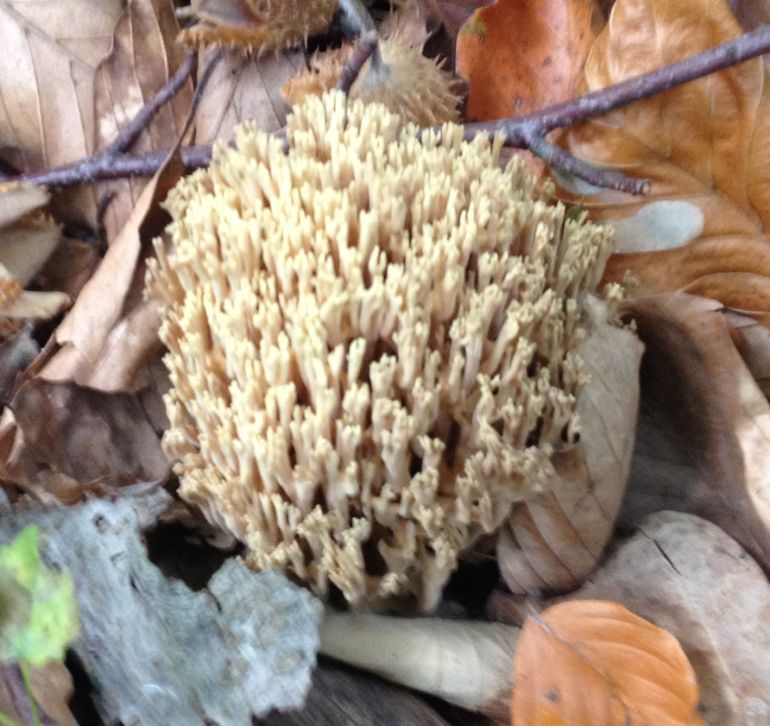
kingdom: Fungi
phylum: Basidiomycota
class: Agaricomycetes
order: Gomphales
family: Gomphaceae
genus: Ramaria
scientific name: Ramaria stricta
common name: rank koralsvamp
